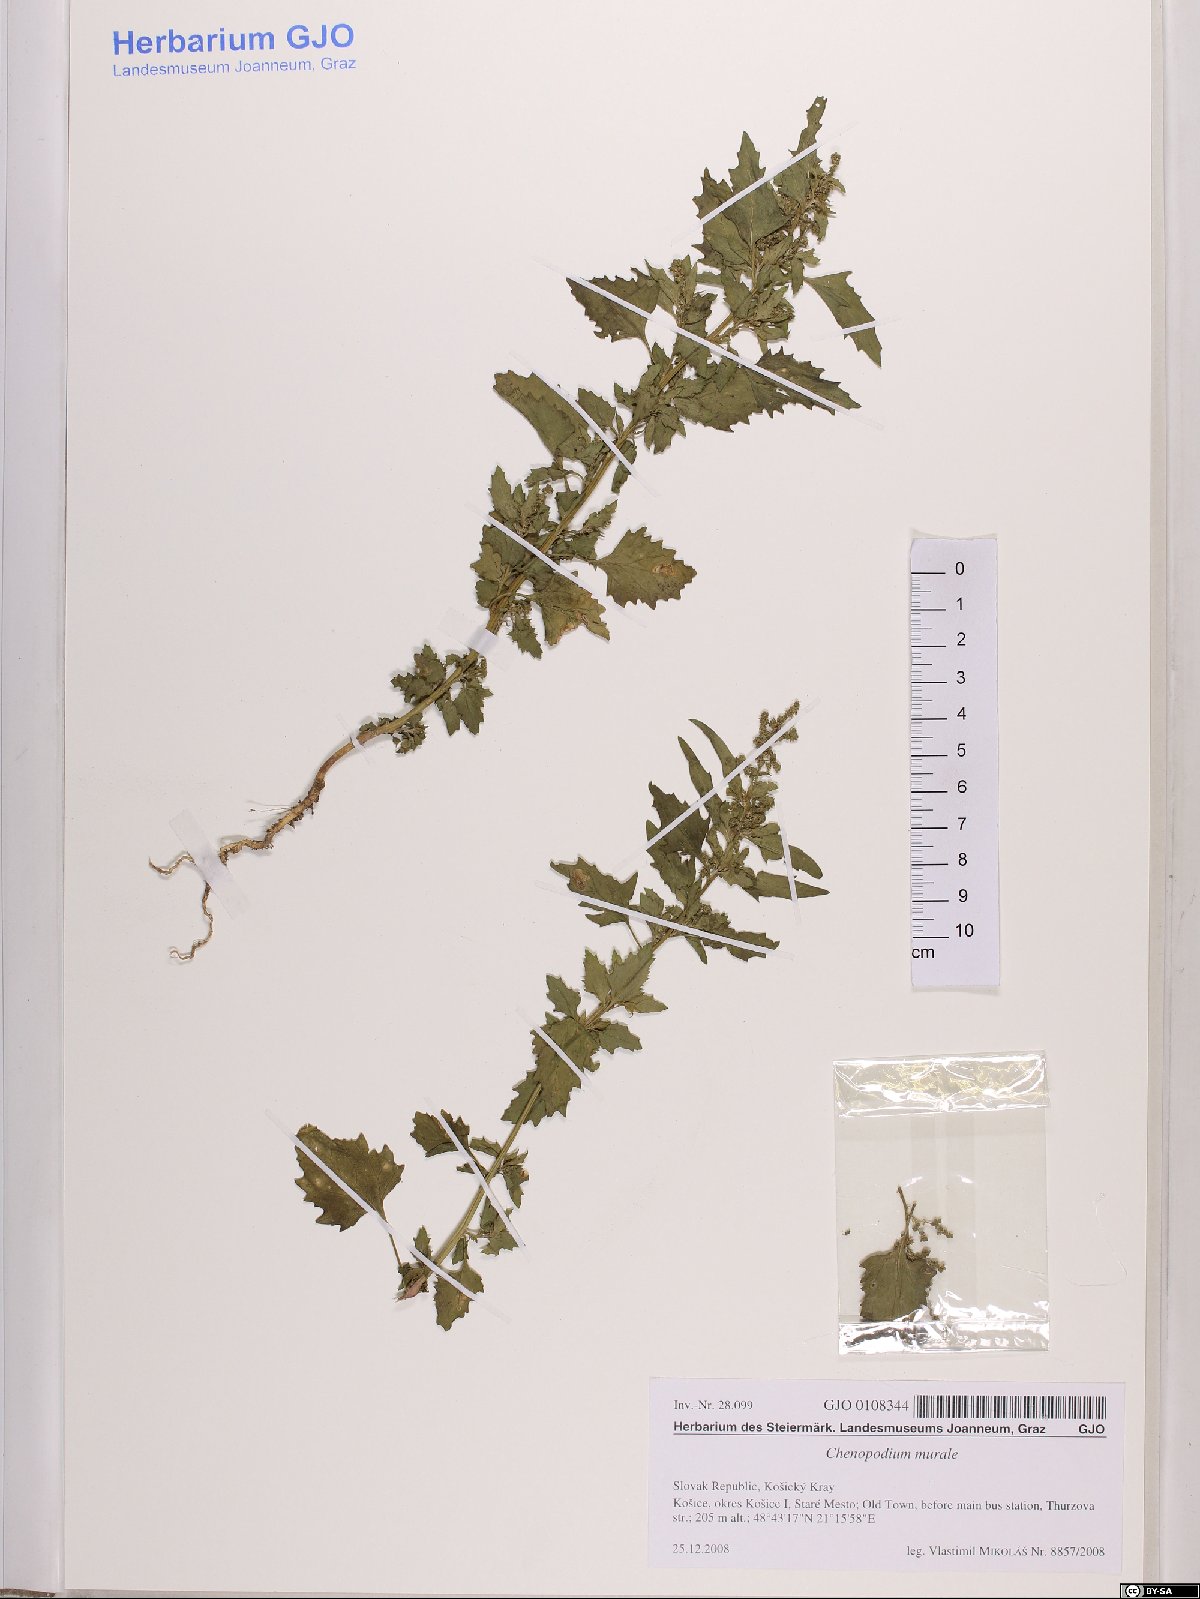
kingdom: Plantae
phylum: Tracheophyta
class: Magnoliopsida
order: Caryophyllales
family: Amaranthaceae
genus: Chenopodiastrum
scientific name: Chenopodiastrum murale
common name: Sowbane
